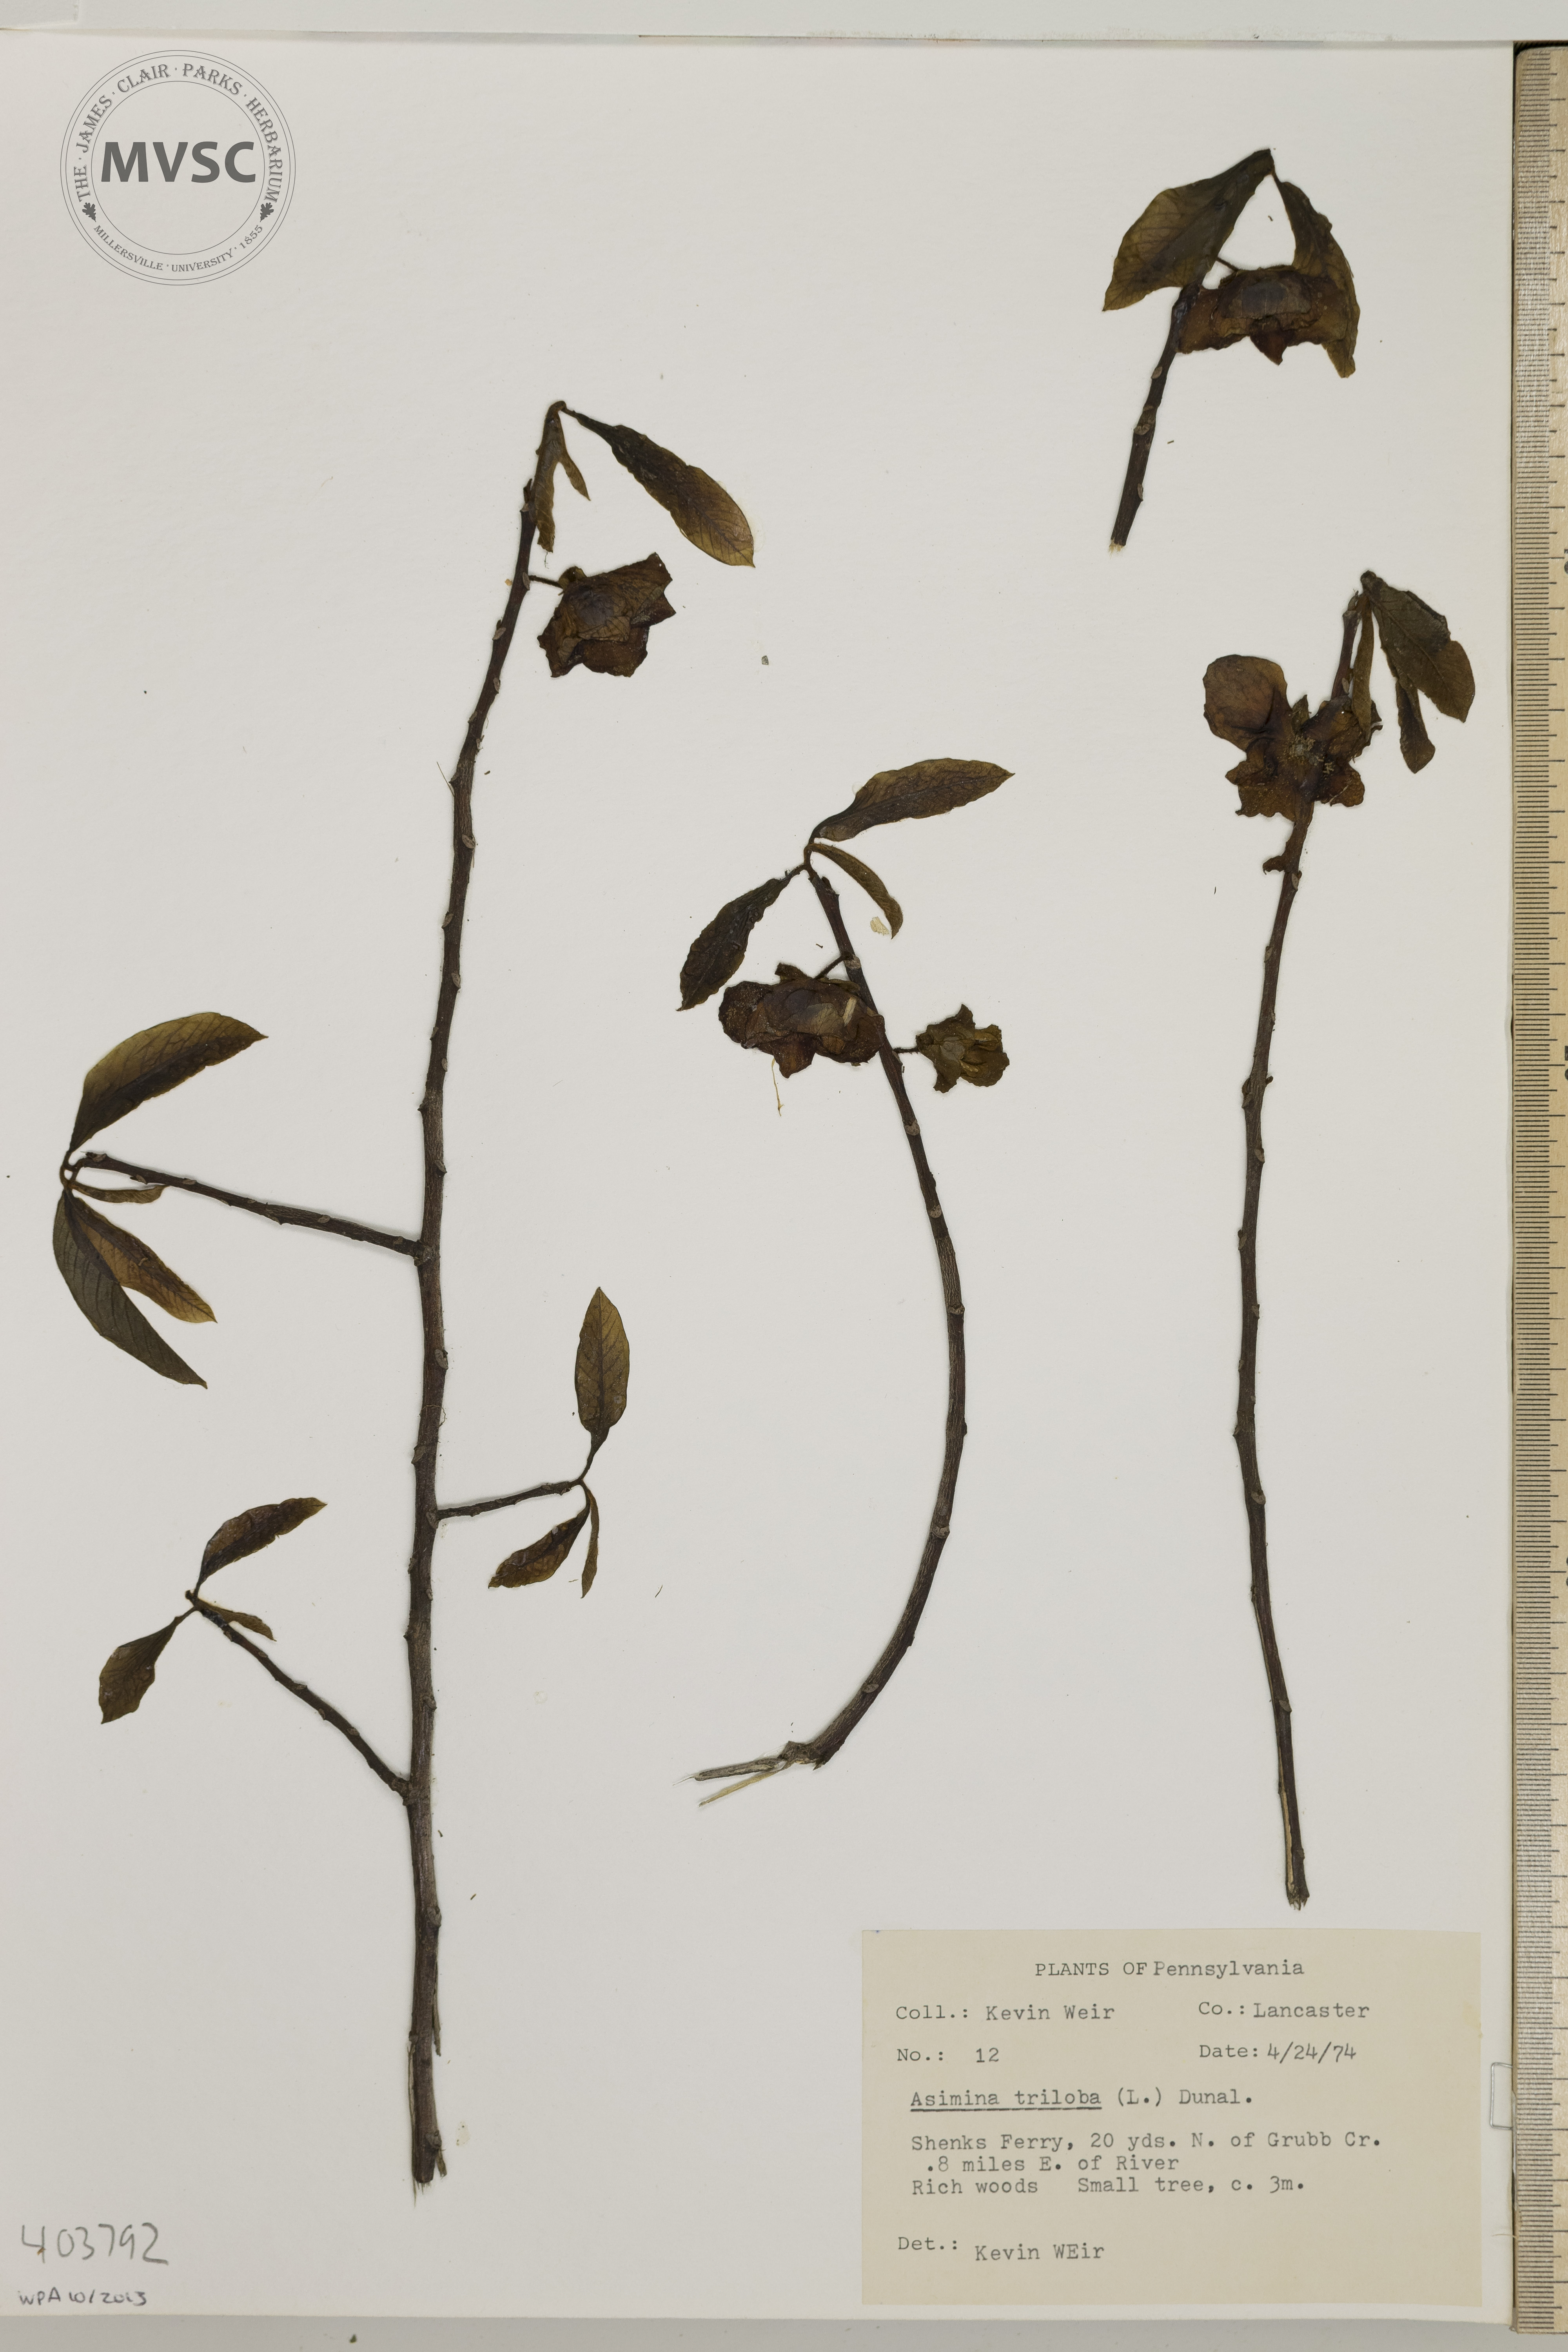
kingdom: Plantae
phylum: Tracheophyta
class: Magnoliopsida
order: Magnoliales
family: Annonaceae
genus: Asimina
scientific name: Asimina triloba
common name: Pawpaw
